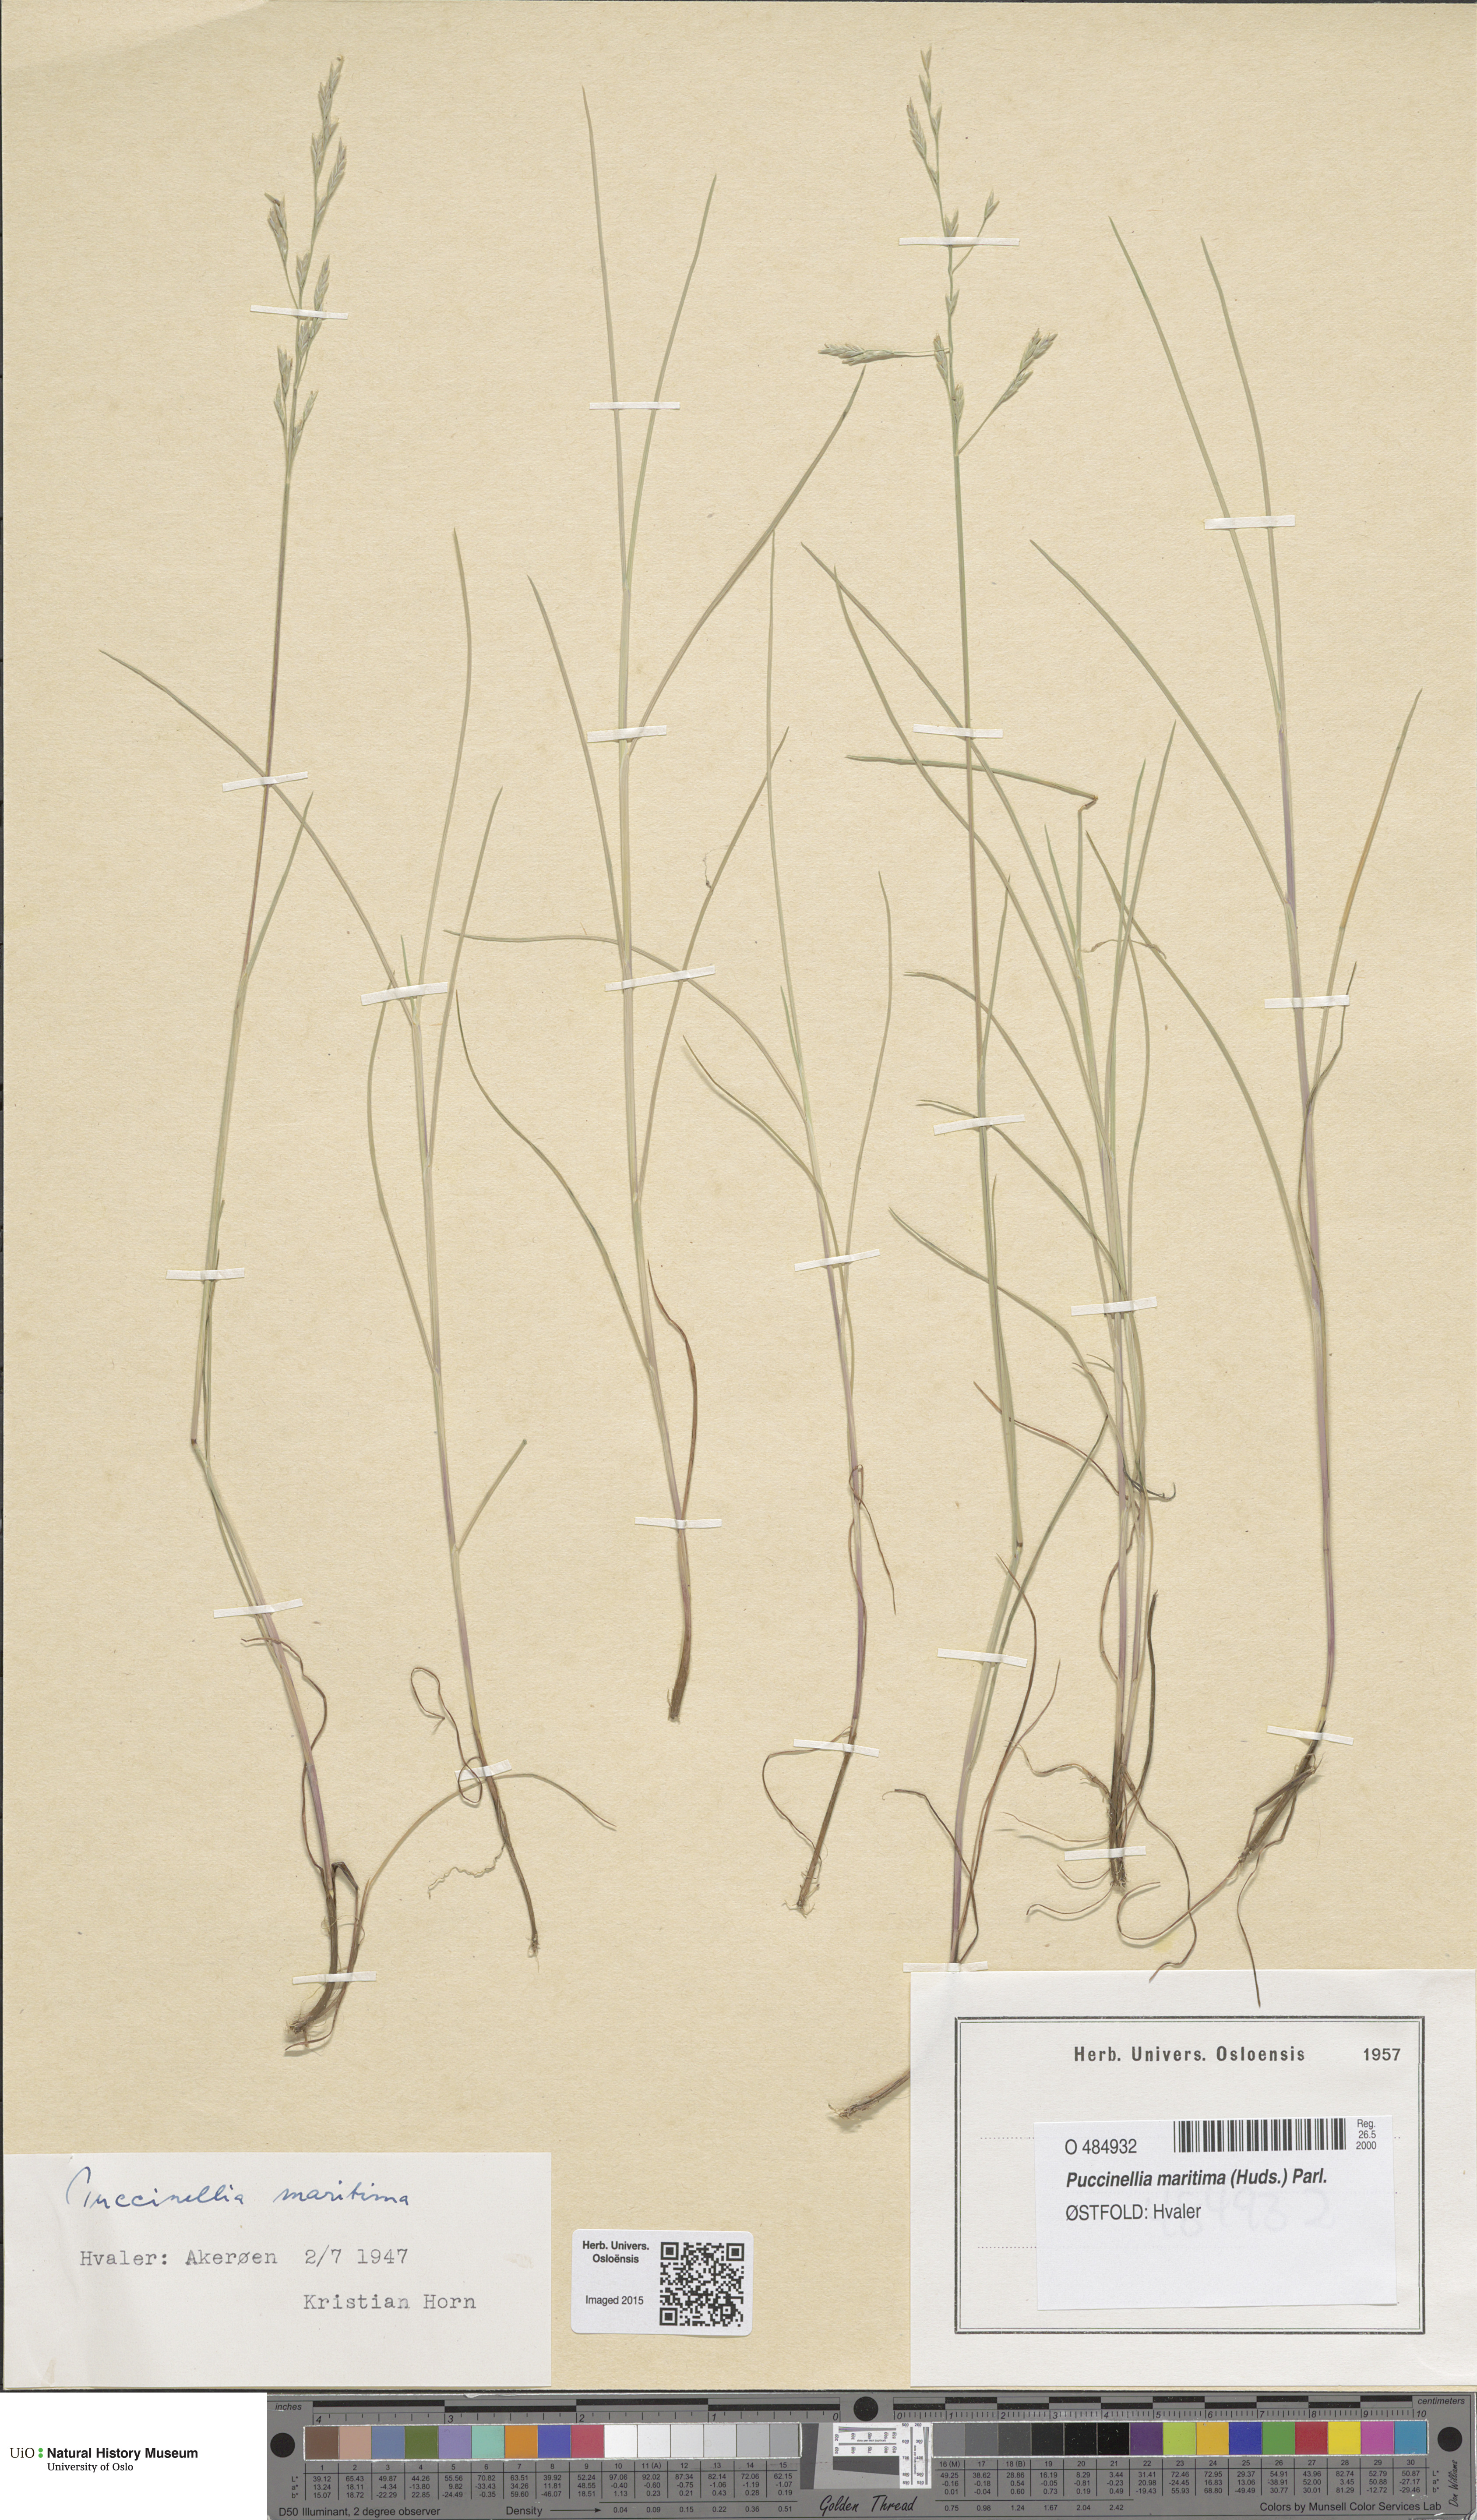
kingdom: Plantae
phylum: Tracheophyta
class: Liliopsida
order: Poales
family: Poaceae
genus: Puccinellia
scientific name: Puccinellia maritima
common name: Common saltmarsh grass
